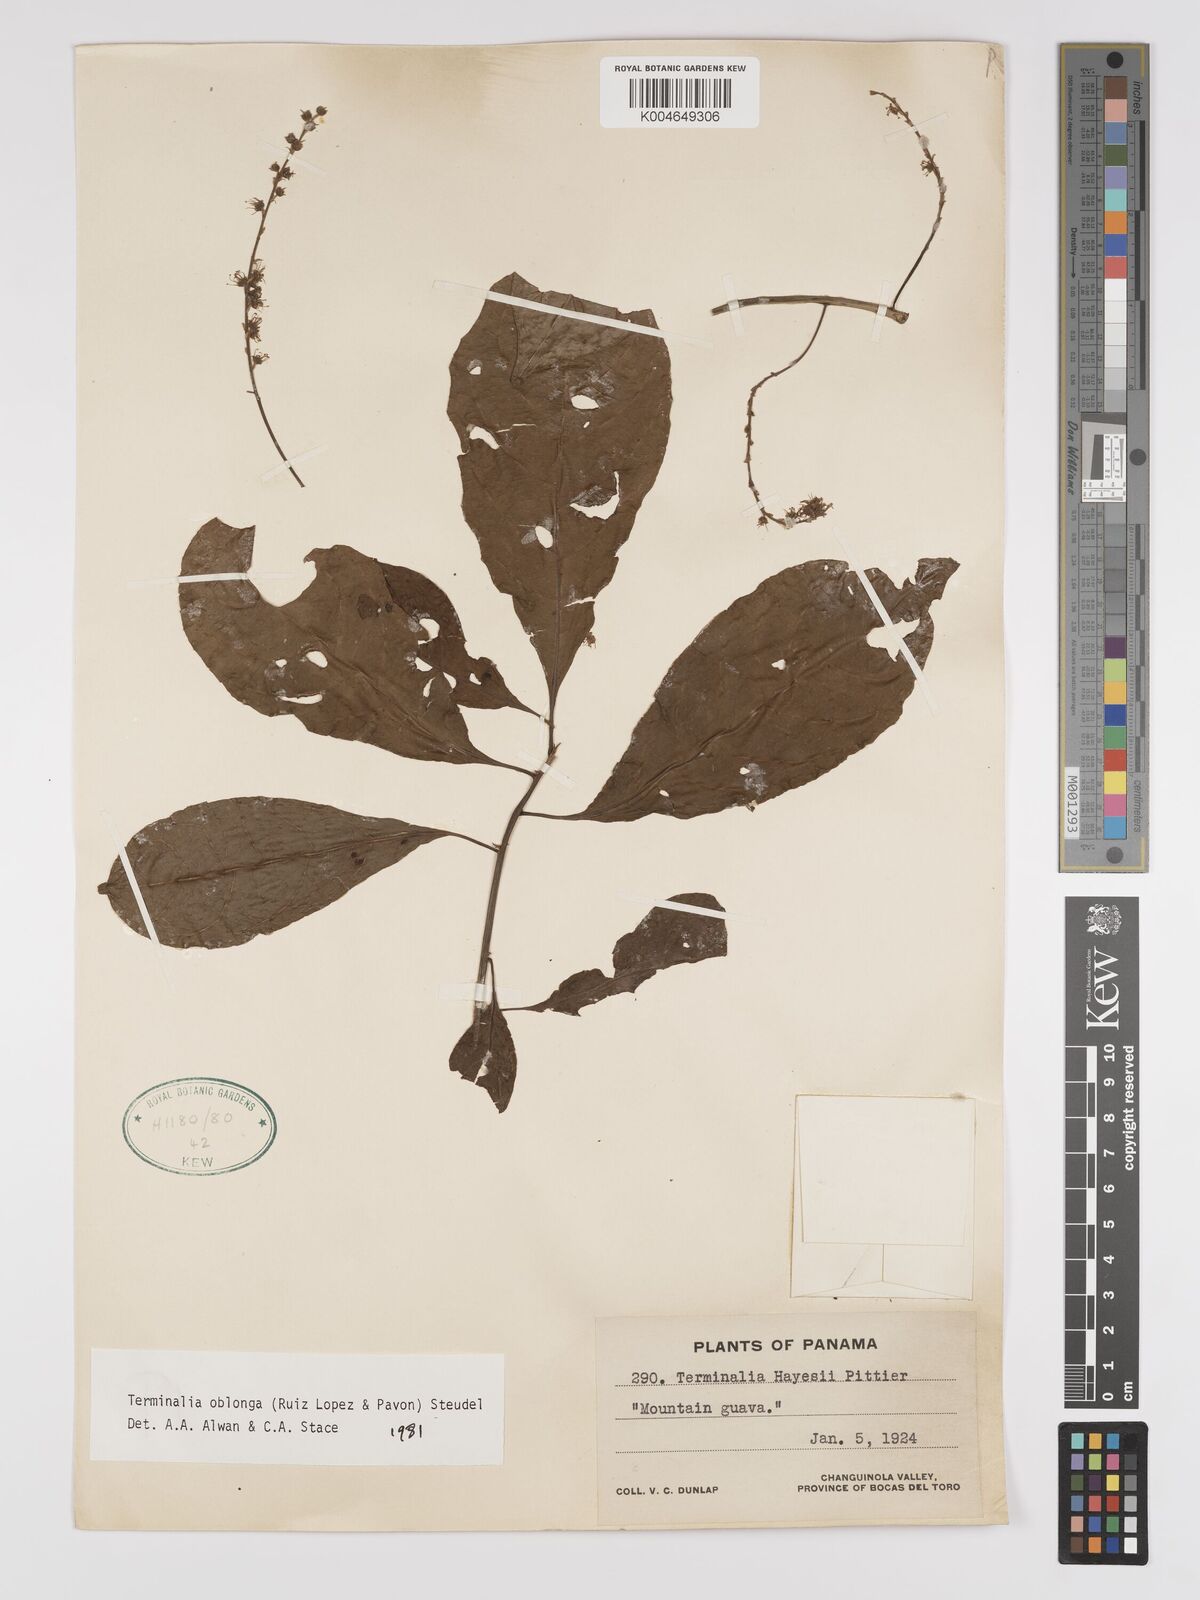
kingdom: Plantae
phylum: Tracheophyta
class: Magnoliopsida
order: Myrtales
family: Combretaceae
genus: Terminalia
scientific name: Terminalia oblonga
